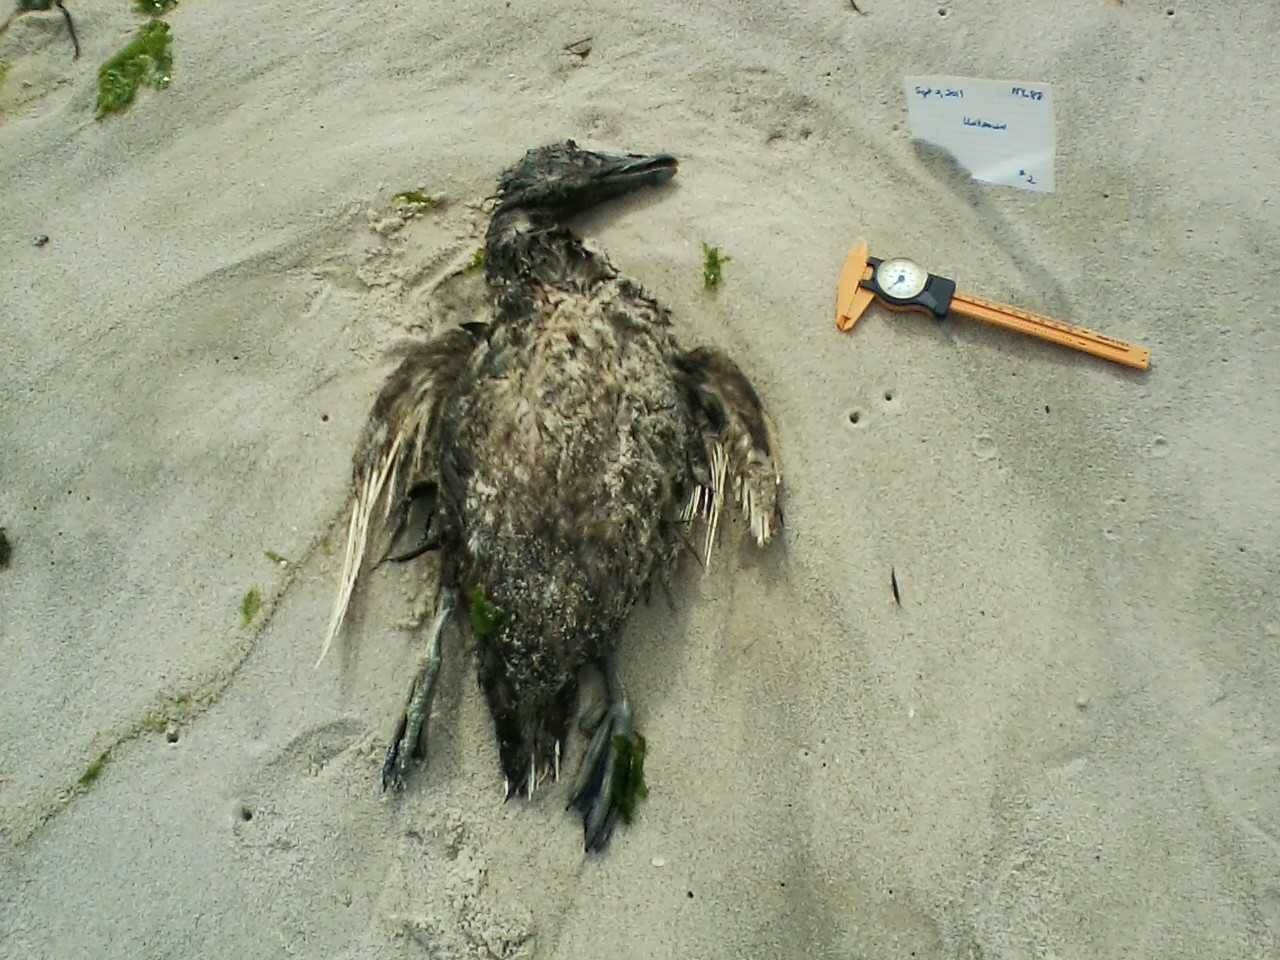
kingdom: Animalia
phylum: Chordata
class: Aves
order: Charadriiformes
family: Scolopacidae
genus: Calidris
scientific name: Calidris alpina
